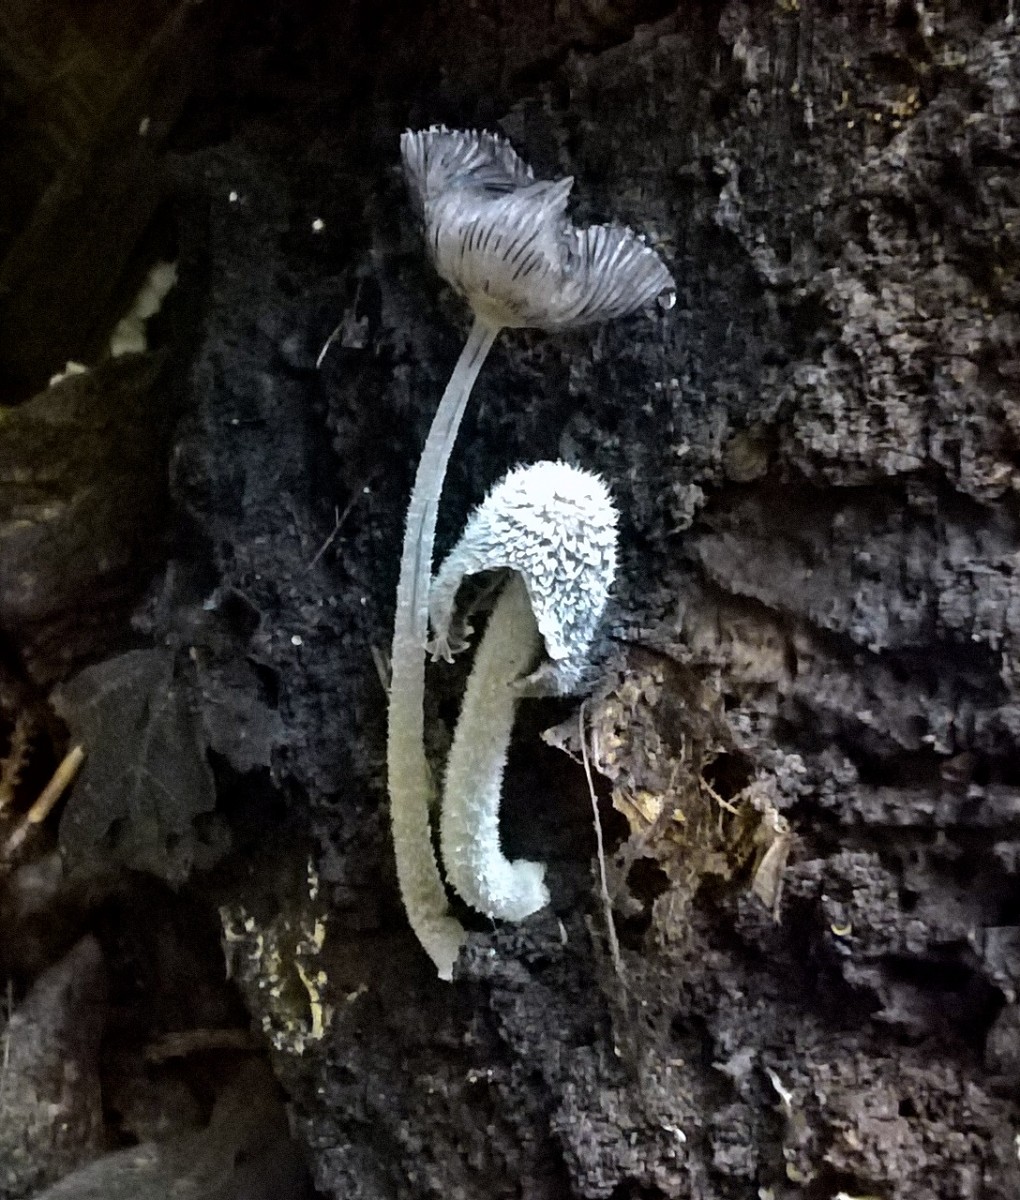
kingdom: Fungi
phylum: Basidiomycota
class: Agaricomycetes
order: Agaricales
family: Psathyrellaceae
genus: Coprinopsis
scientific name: Coprinopsis lagopus
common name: dunstokket blækhat
